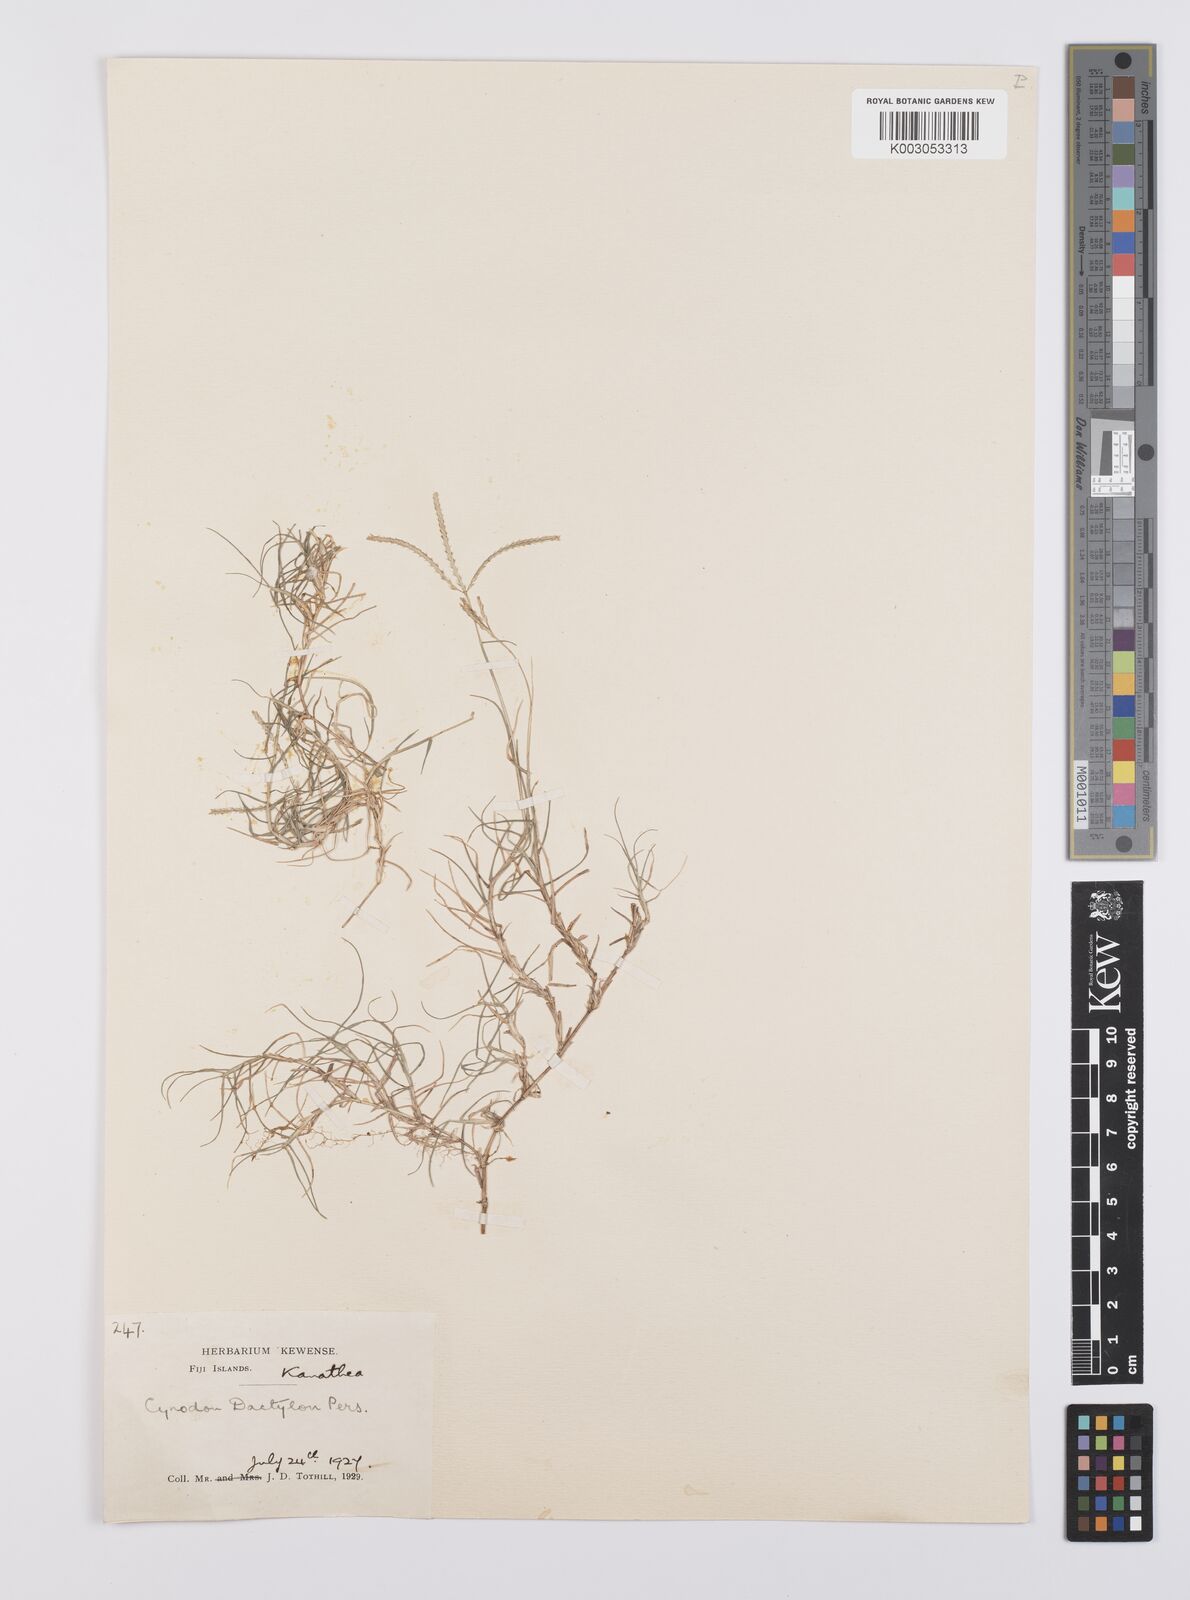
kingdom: Plantae
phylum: Tracheophyta
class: Liliopsida
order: Poales
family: Poaceae
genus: Cynodon
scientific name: Cynodon dactylon
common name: Bermuda grass
